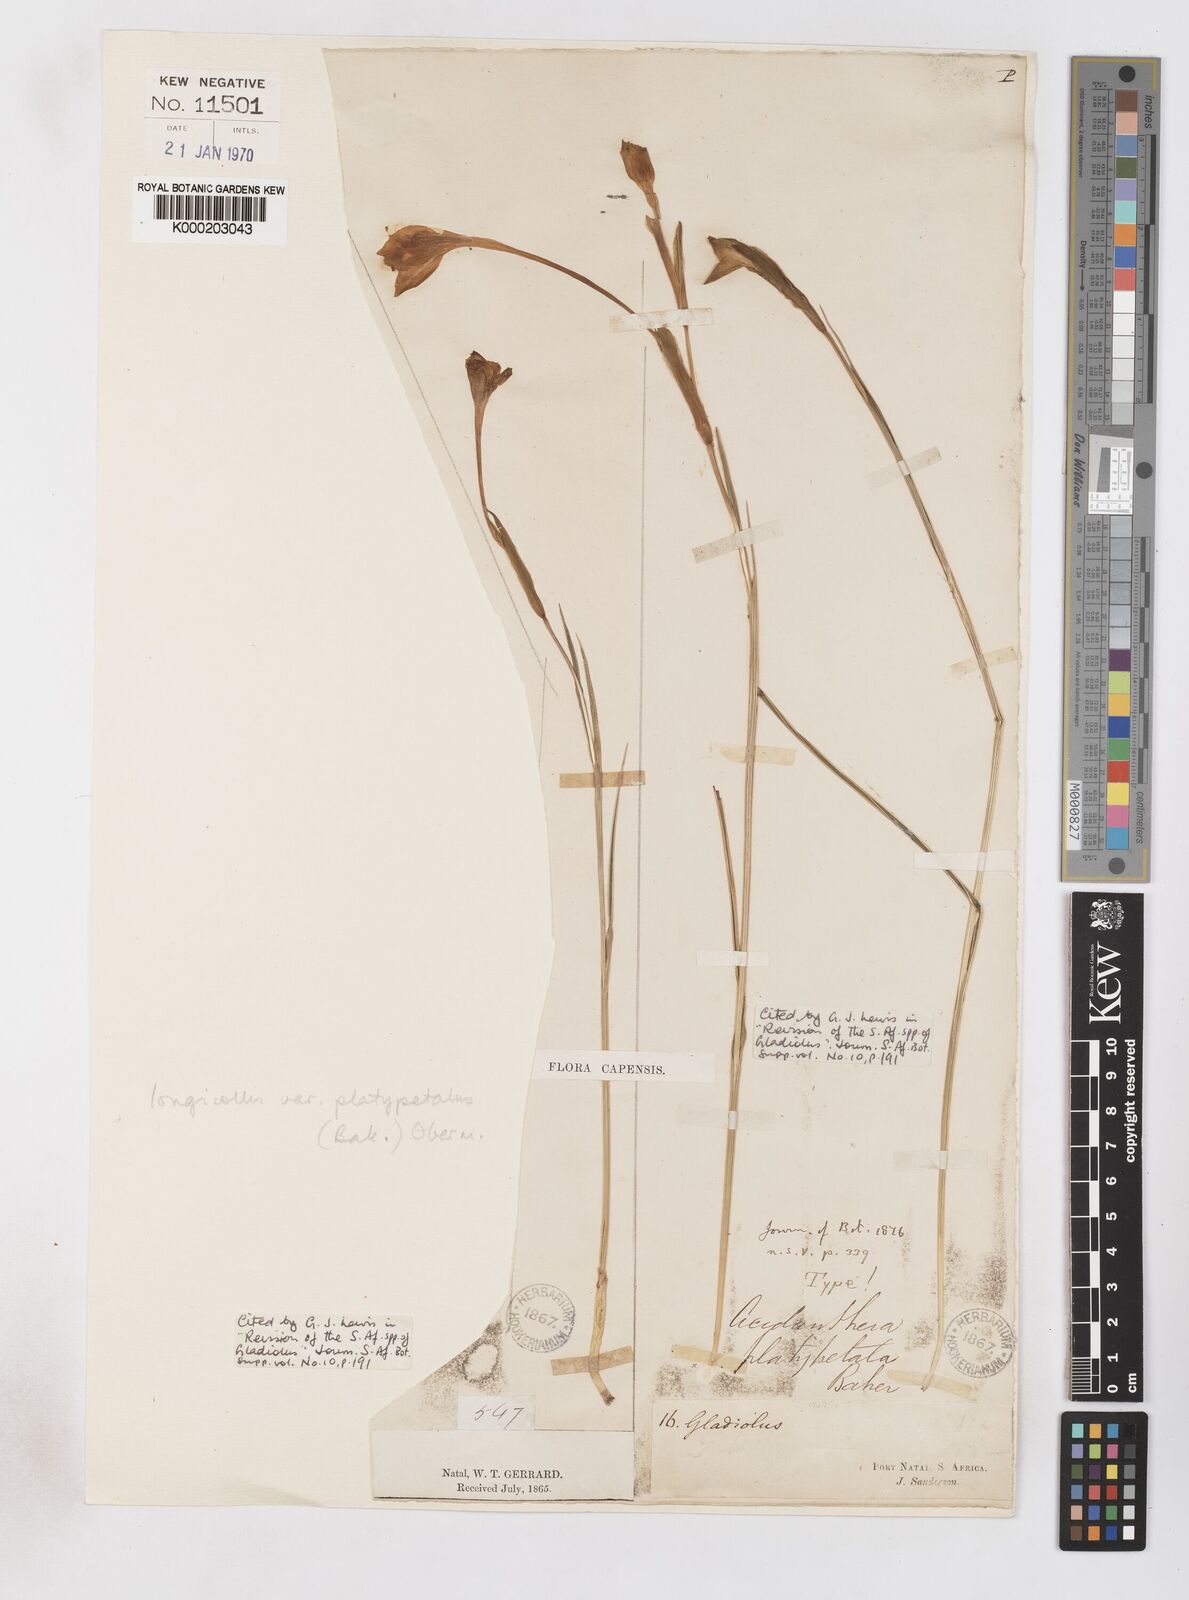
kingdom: Plantae
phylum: Tracheophyta
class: Liliopsida
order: Asparagales
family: Iridaceae
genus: Gladiolus
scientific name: Gladiolus longicollis
